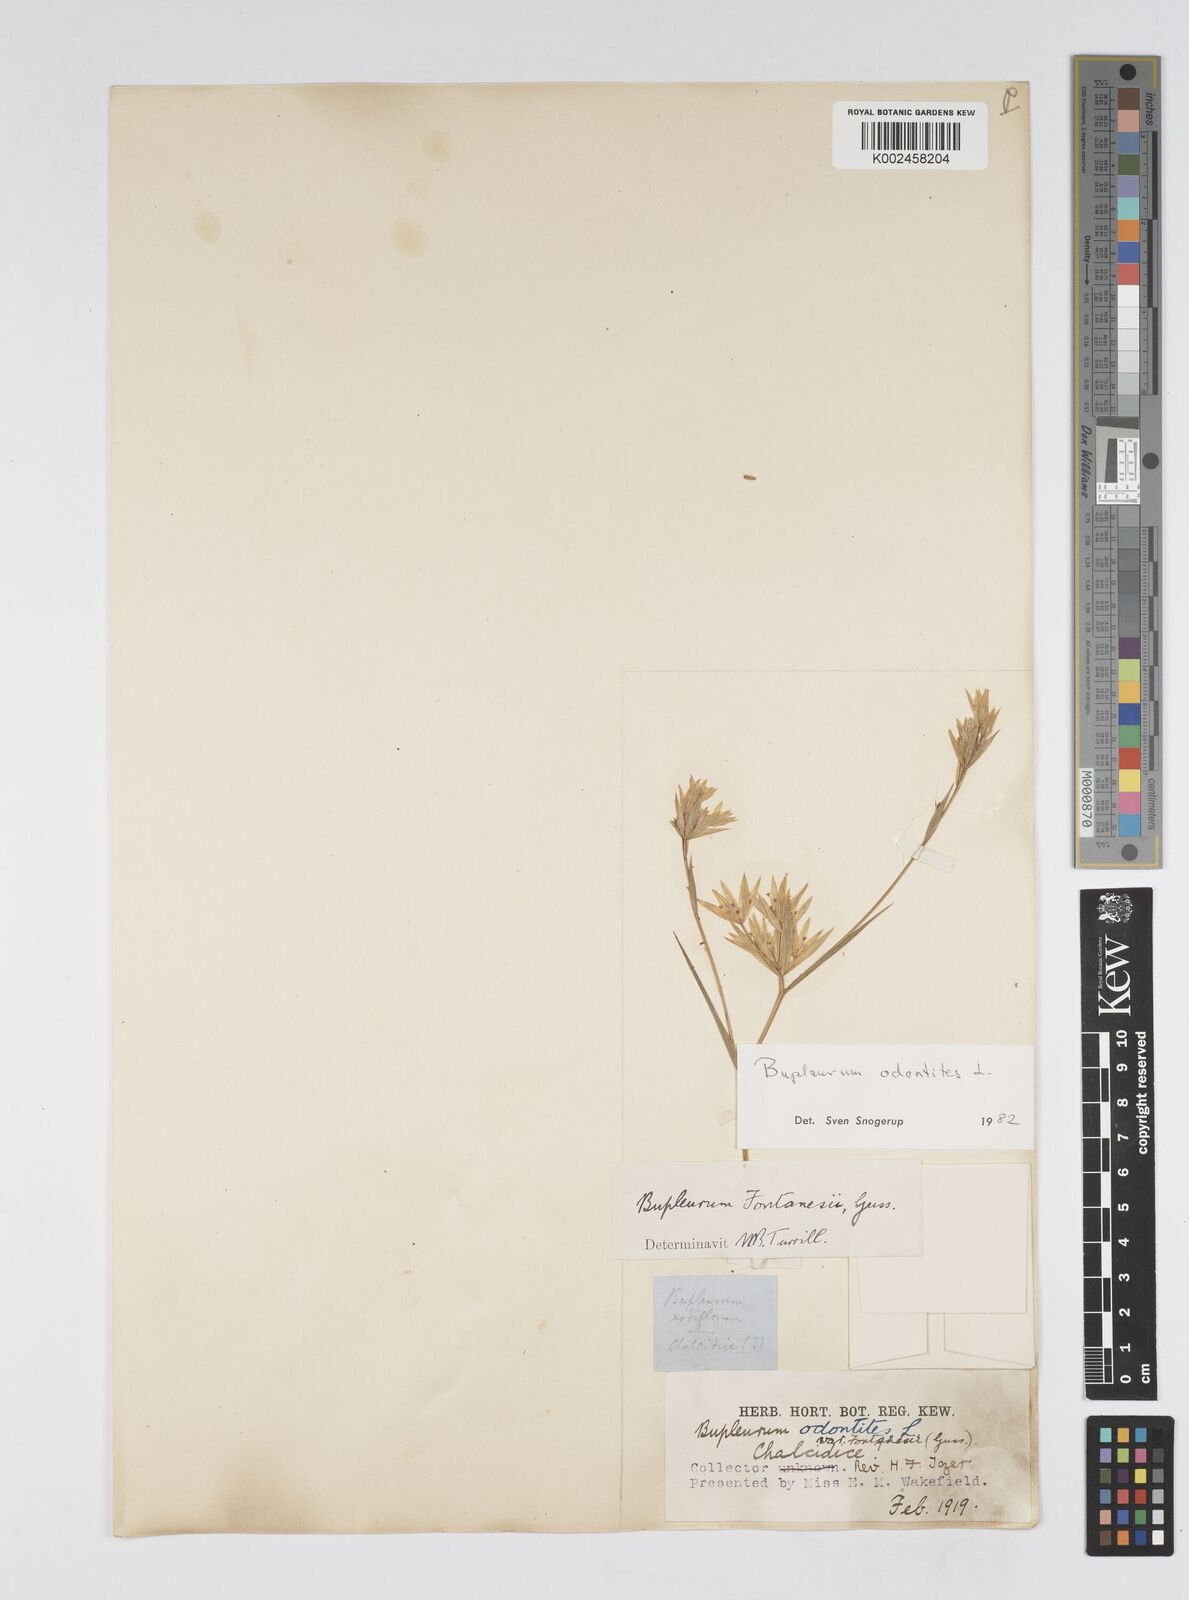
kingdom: Plantae
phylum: Tracheophyta
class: Magnoliopsida
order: Apiales
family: Apiaceae
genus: Bupleurum
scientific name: Bupleurum odontites
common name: Narrowleaf thorow wax
